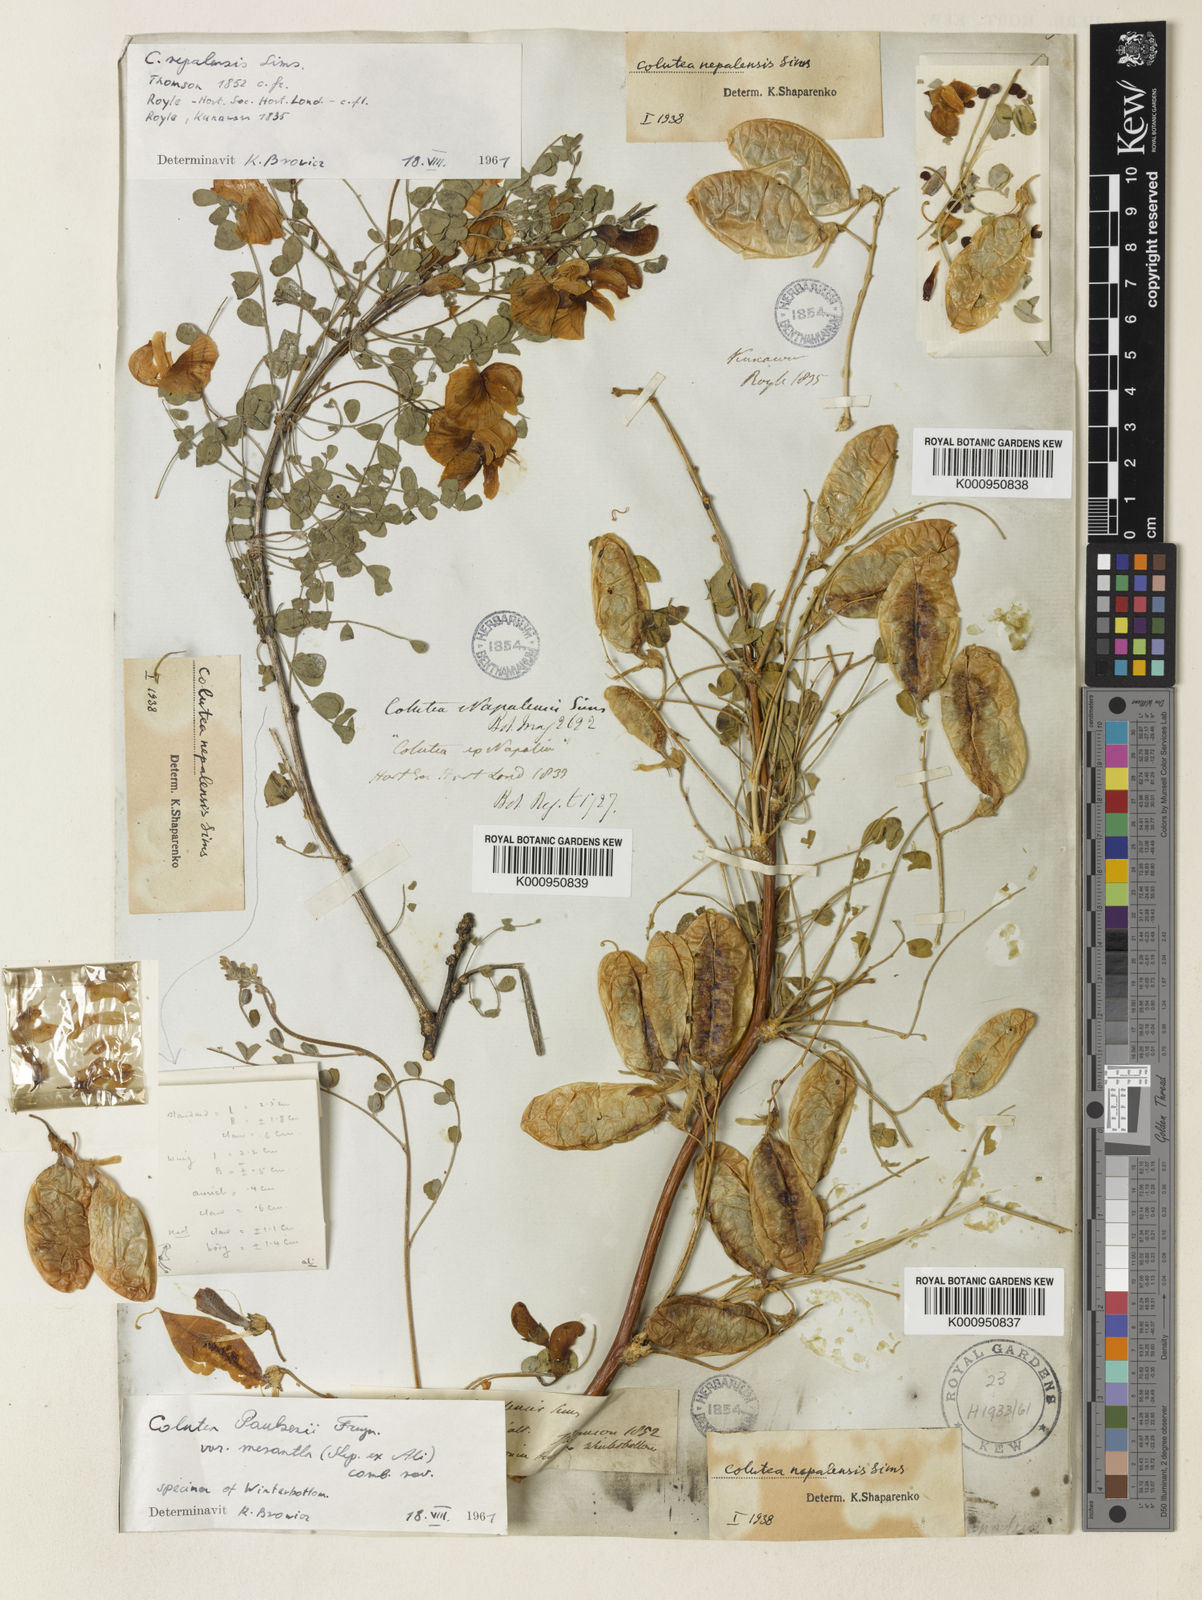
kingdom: Plantae
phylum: Tracheophyta
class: Magnoliopsida
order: Fabales
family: Fabaceae
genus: Colutea
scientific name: Colutea arborescens
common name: Bladder-senna
